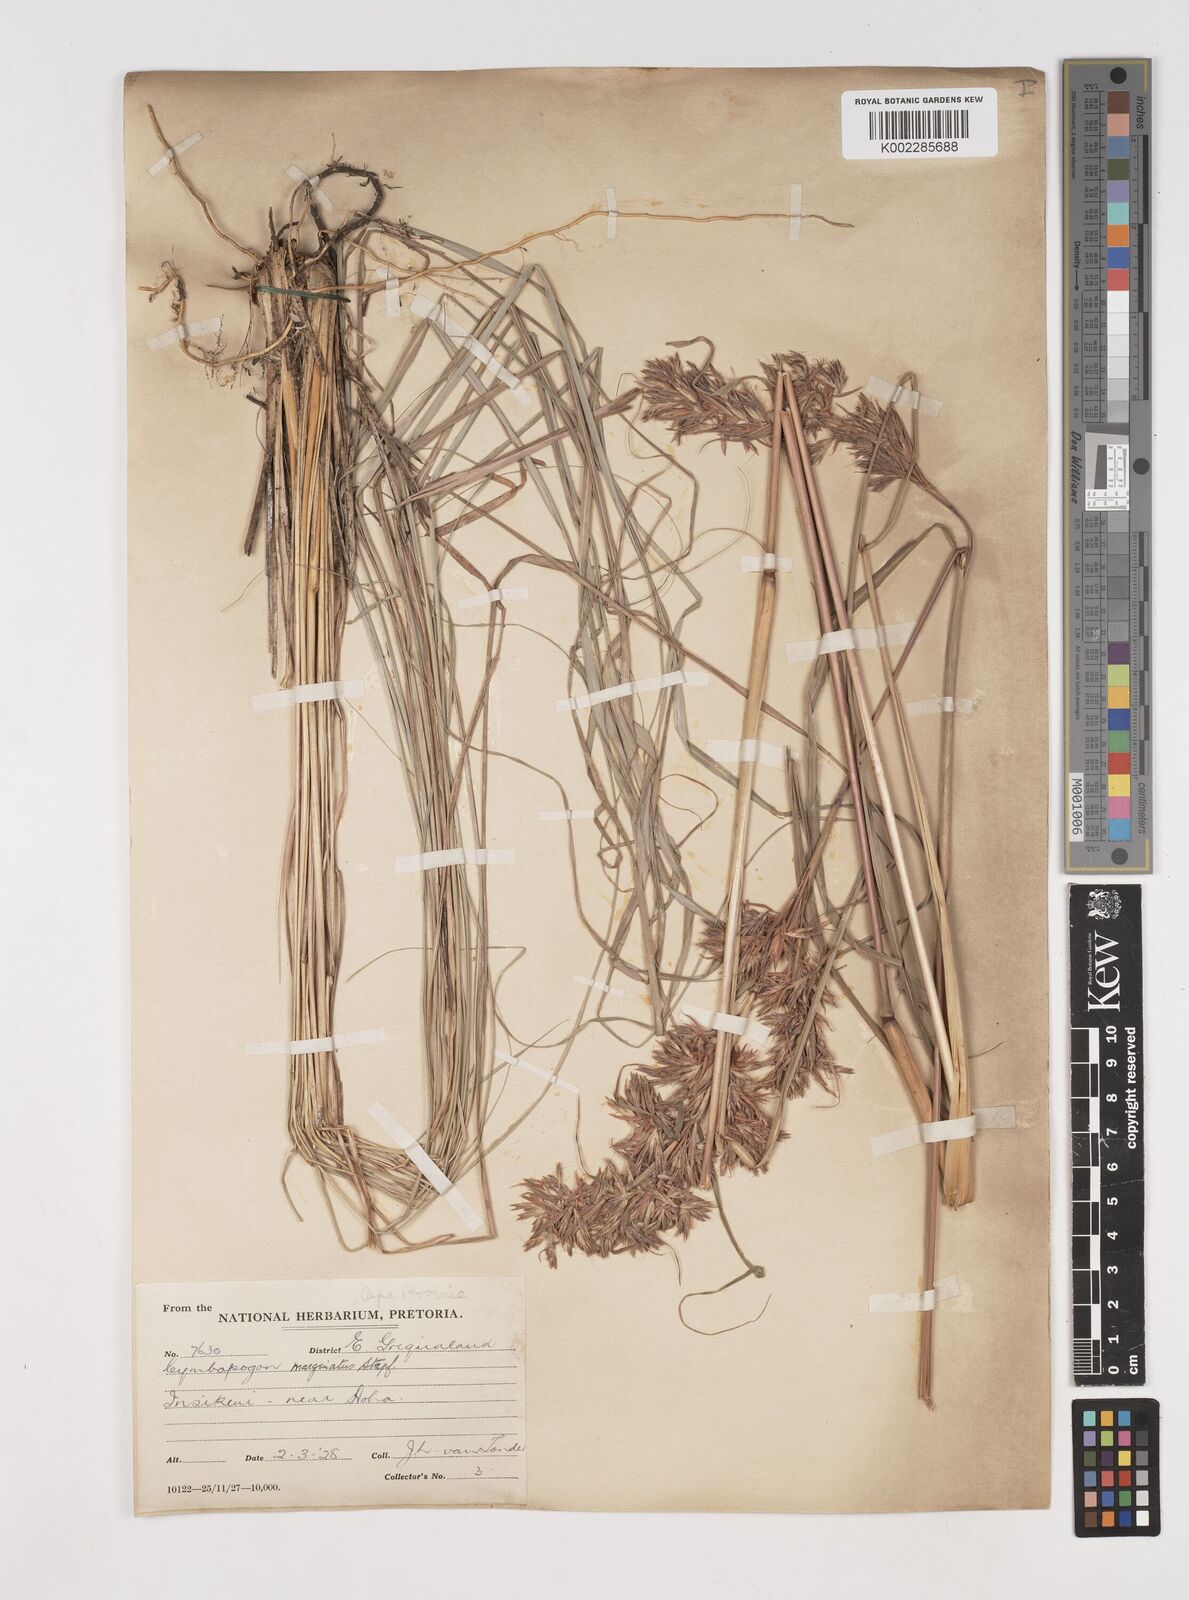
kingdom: Plantae
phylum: Tracheophyta
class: Liliopsida
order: Poales
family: Poaceae
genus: Cymbopogon
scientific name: Cymbopogon marginatus
